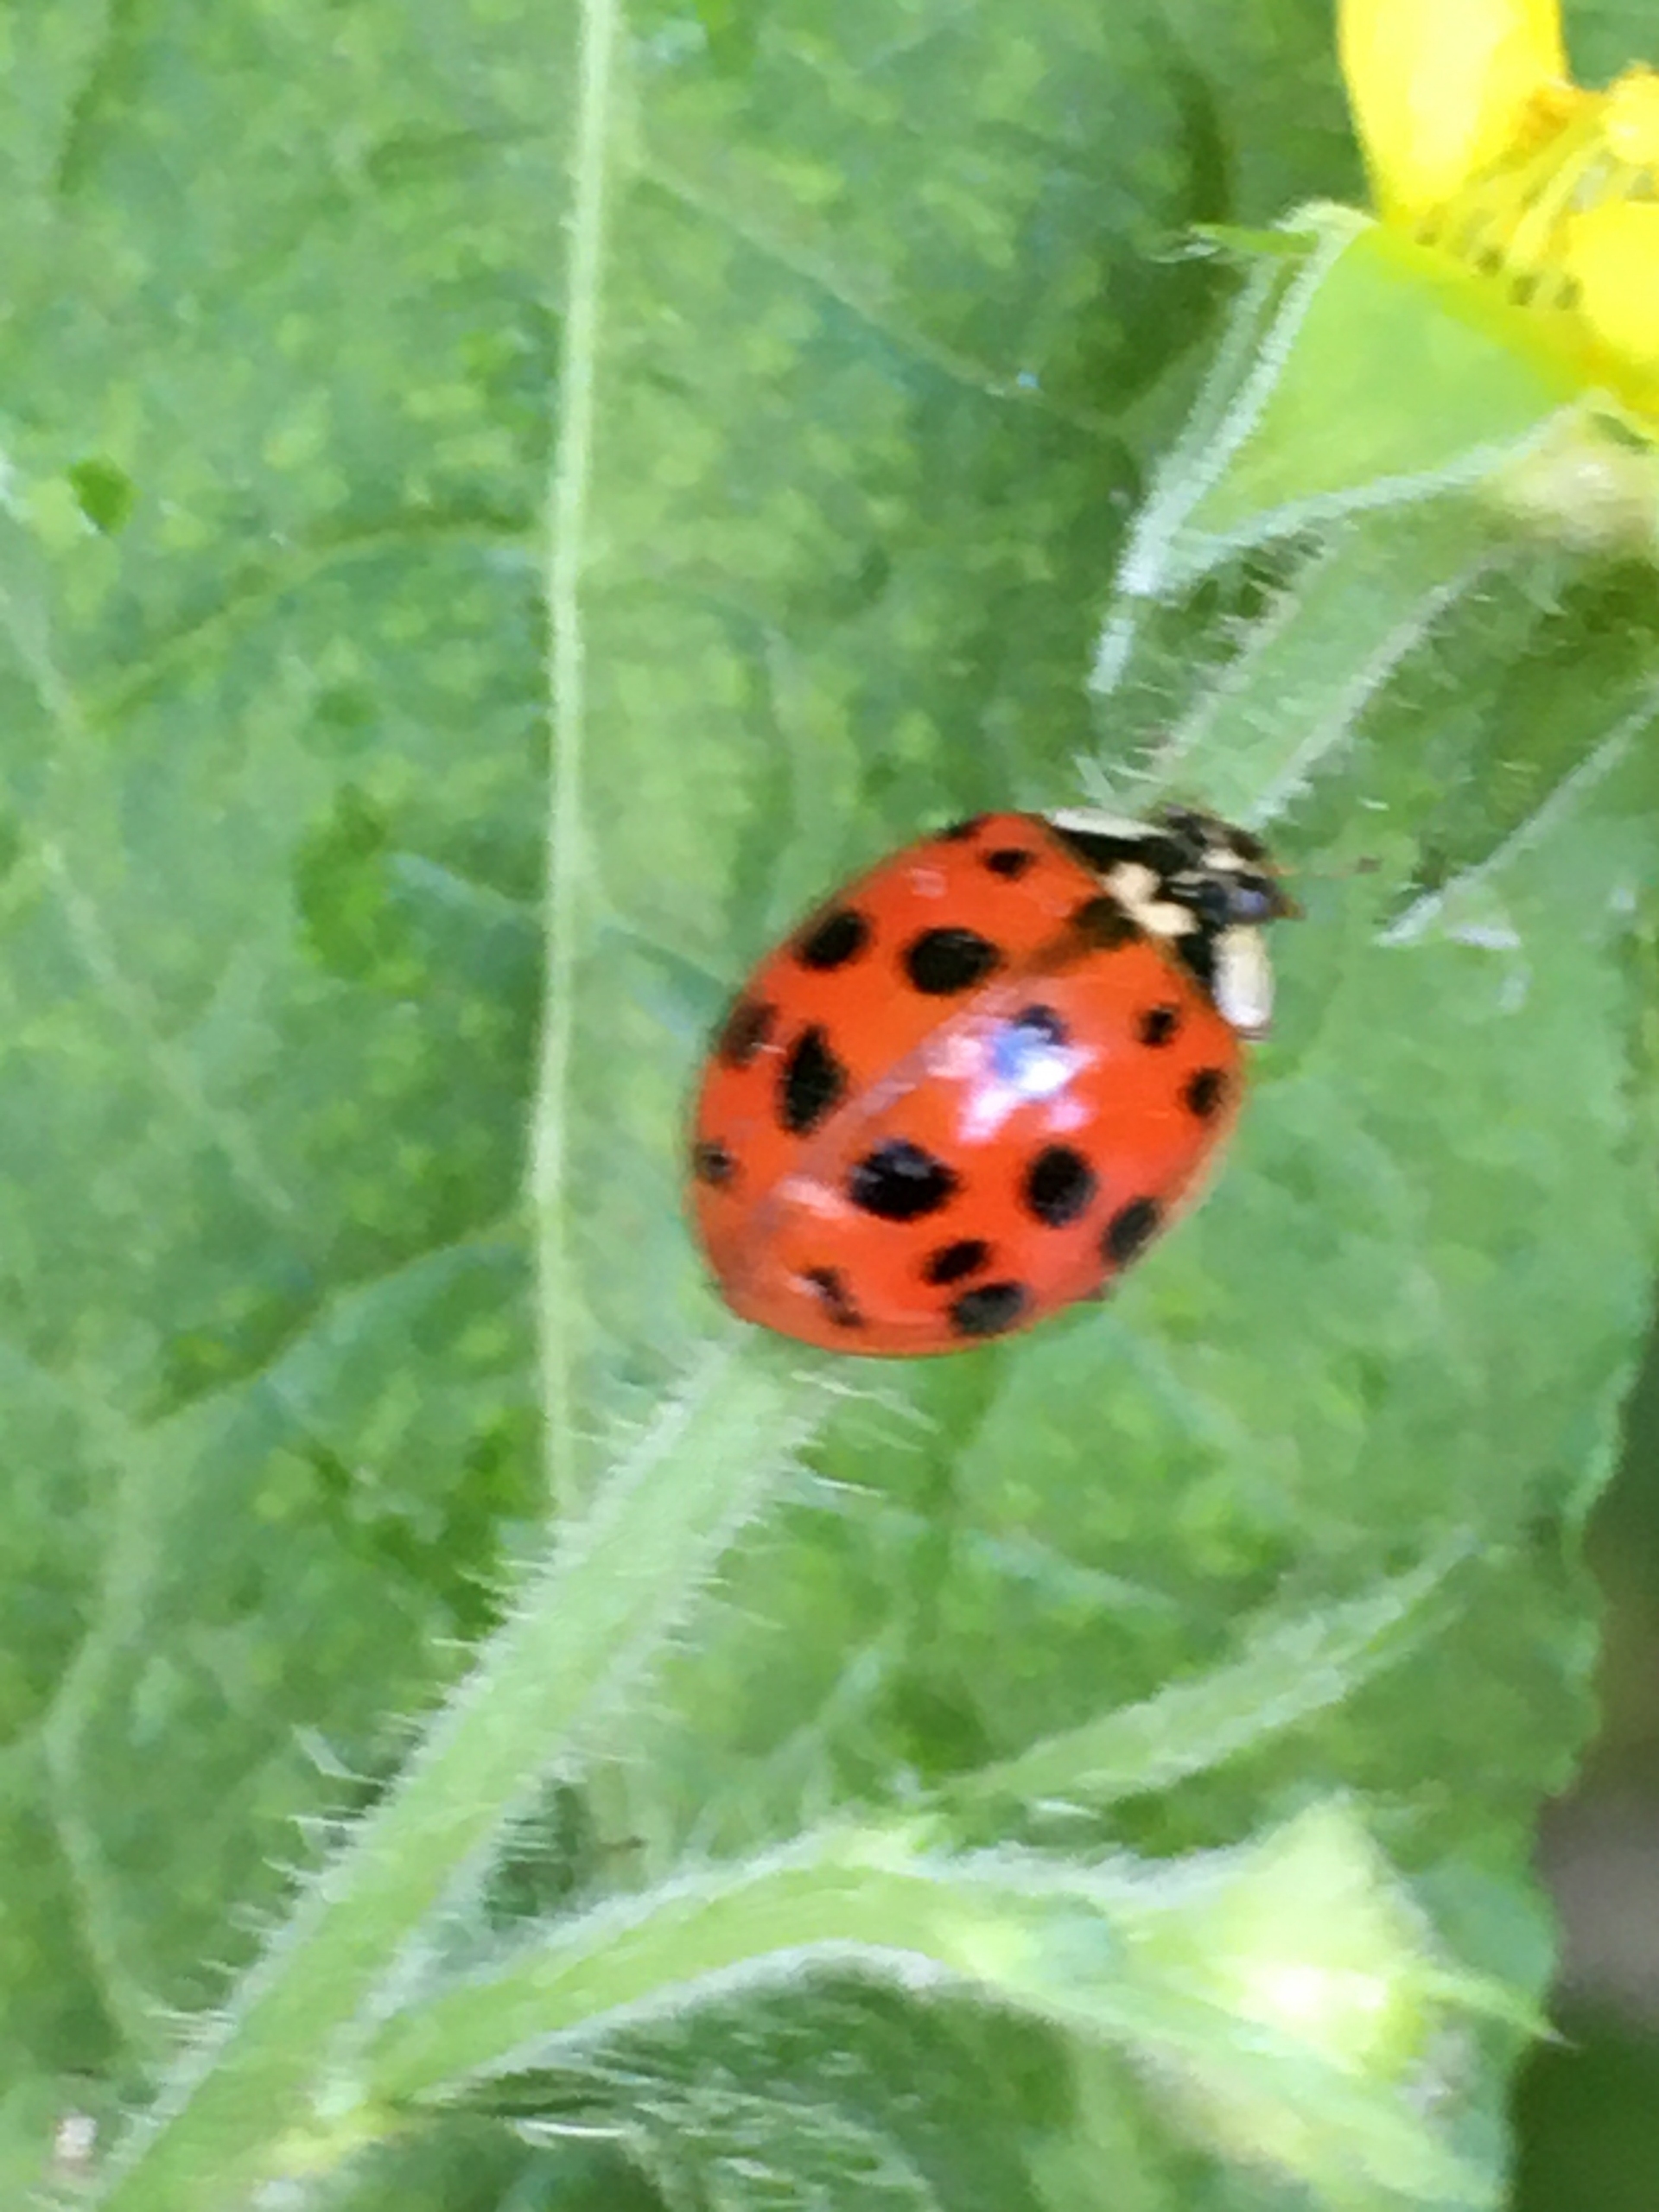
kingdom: Animalia
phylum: Arthropoda
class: Insecta
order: Coleoptera
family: Coccinellidae
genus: Harmonia
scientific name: Harmonia axyridis
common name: Harlekinmariehøne
